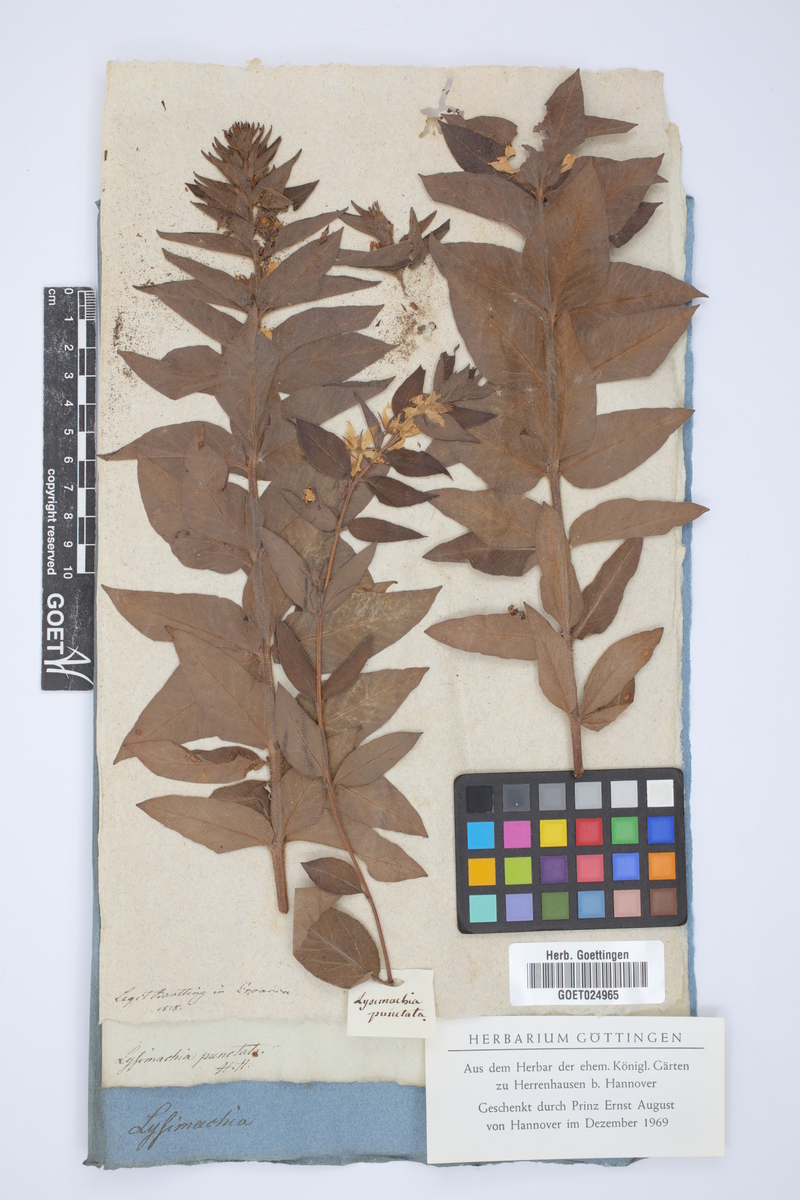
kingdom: Plantae
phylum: Tracheophyta
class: Magnoliopsida
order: Ericales
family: Primulaceae
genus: Lysimachia
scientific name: Lysimachia punctata
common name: Dotted loosestrife
